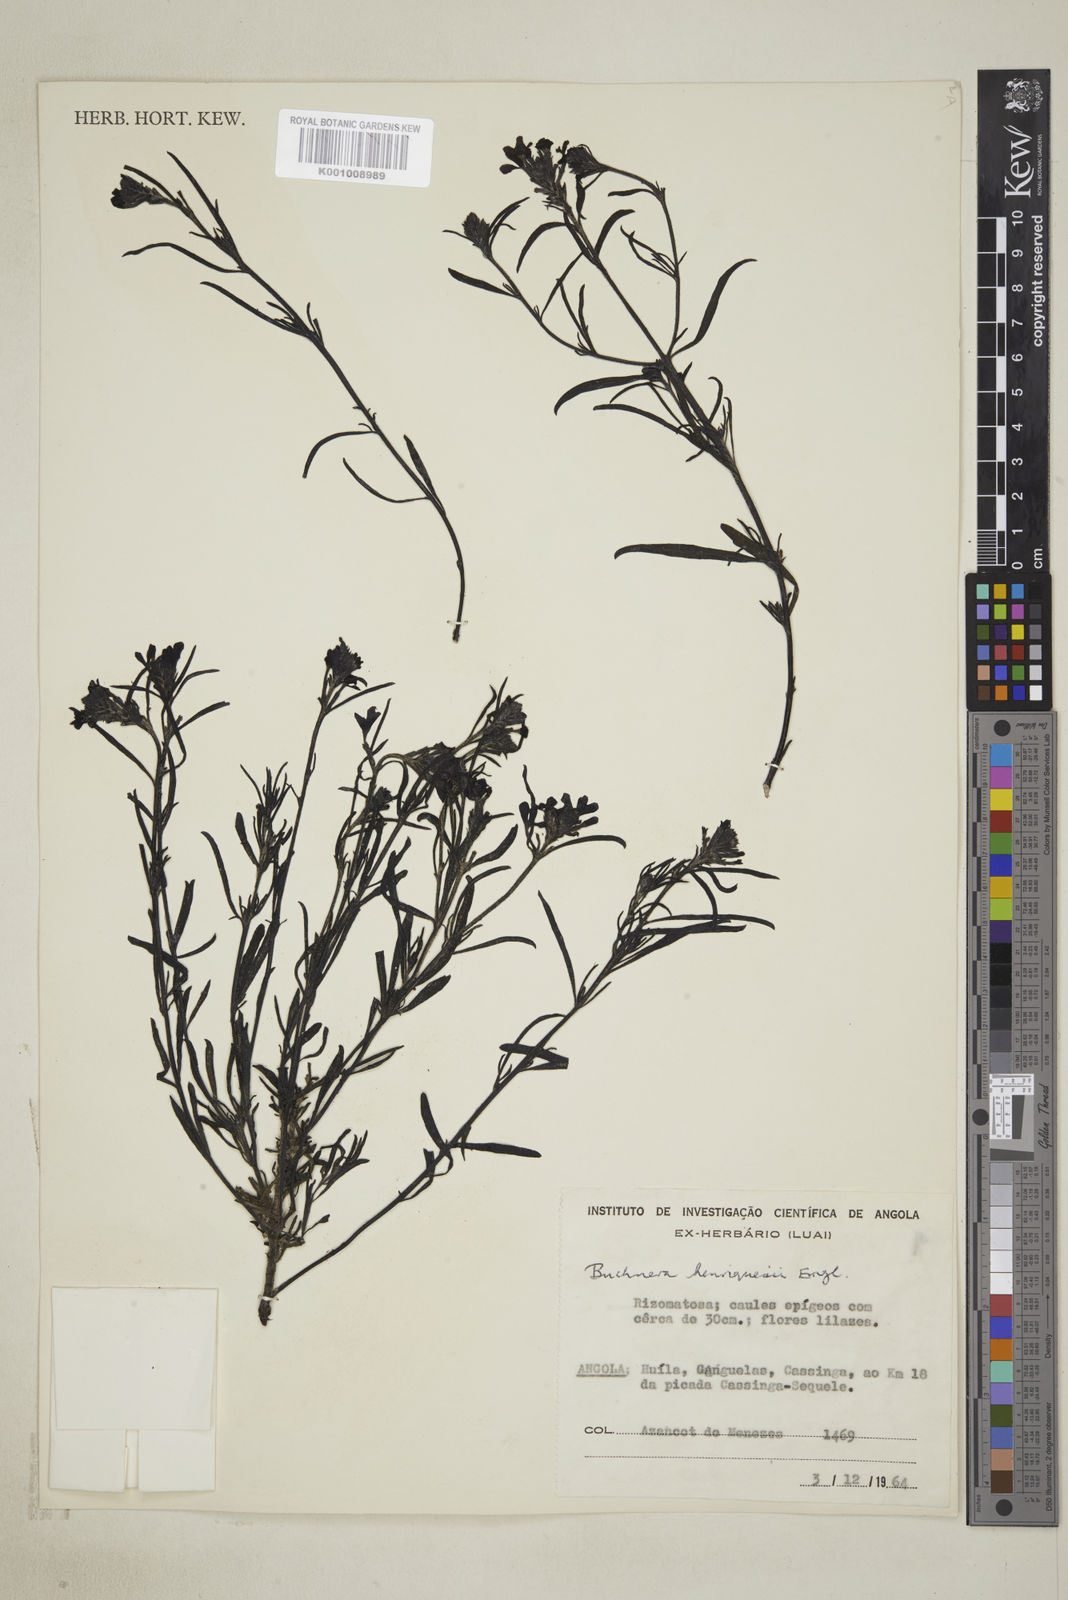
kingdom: Plantae
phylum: Tracheophyta
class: Magnoliopsida
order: Lamiales
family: Orobanchaceae
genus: Buchnera
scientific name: Buchnera henriquesii
